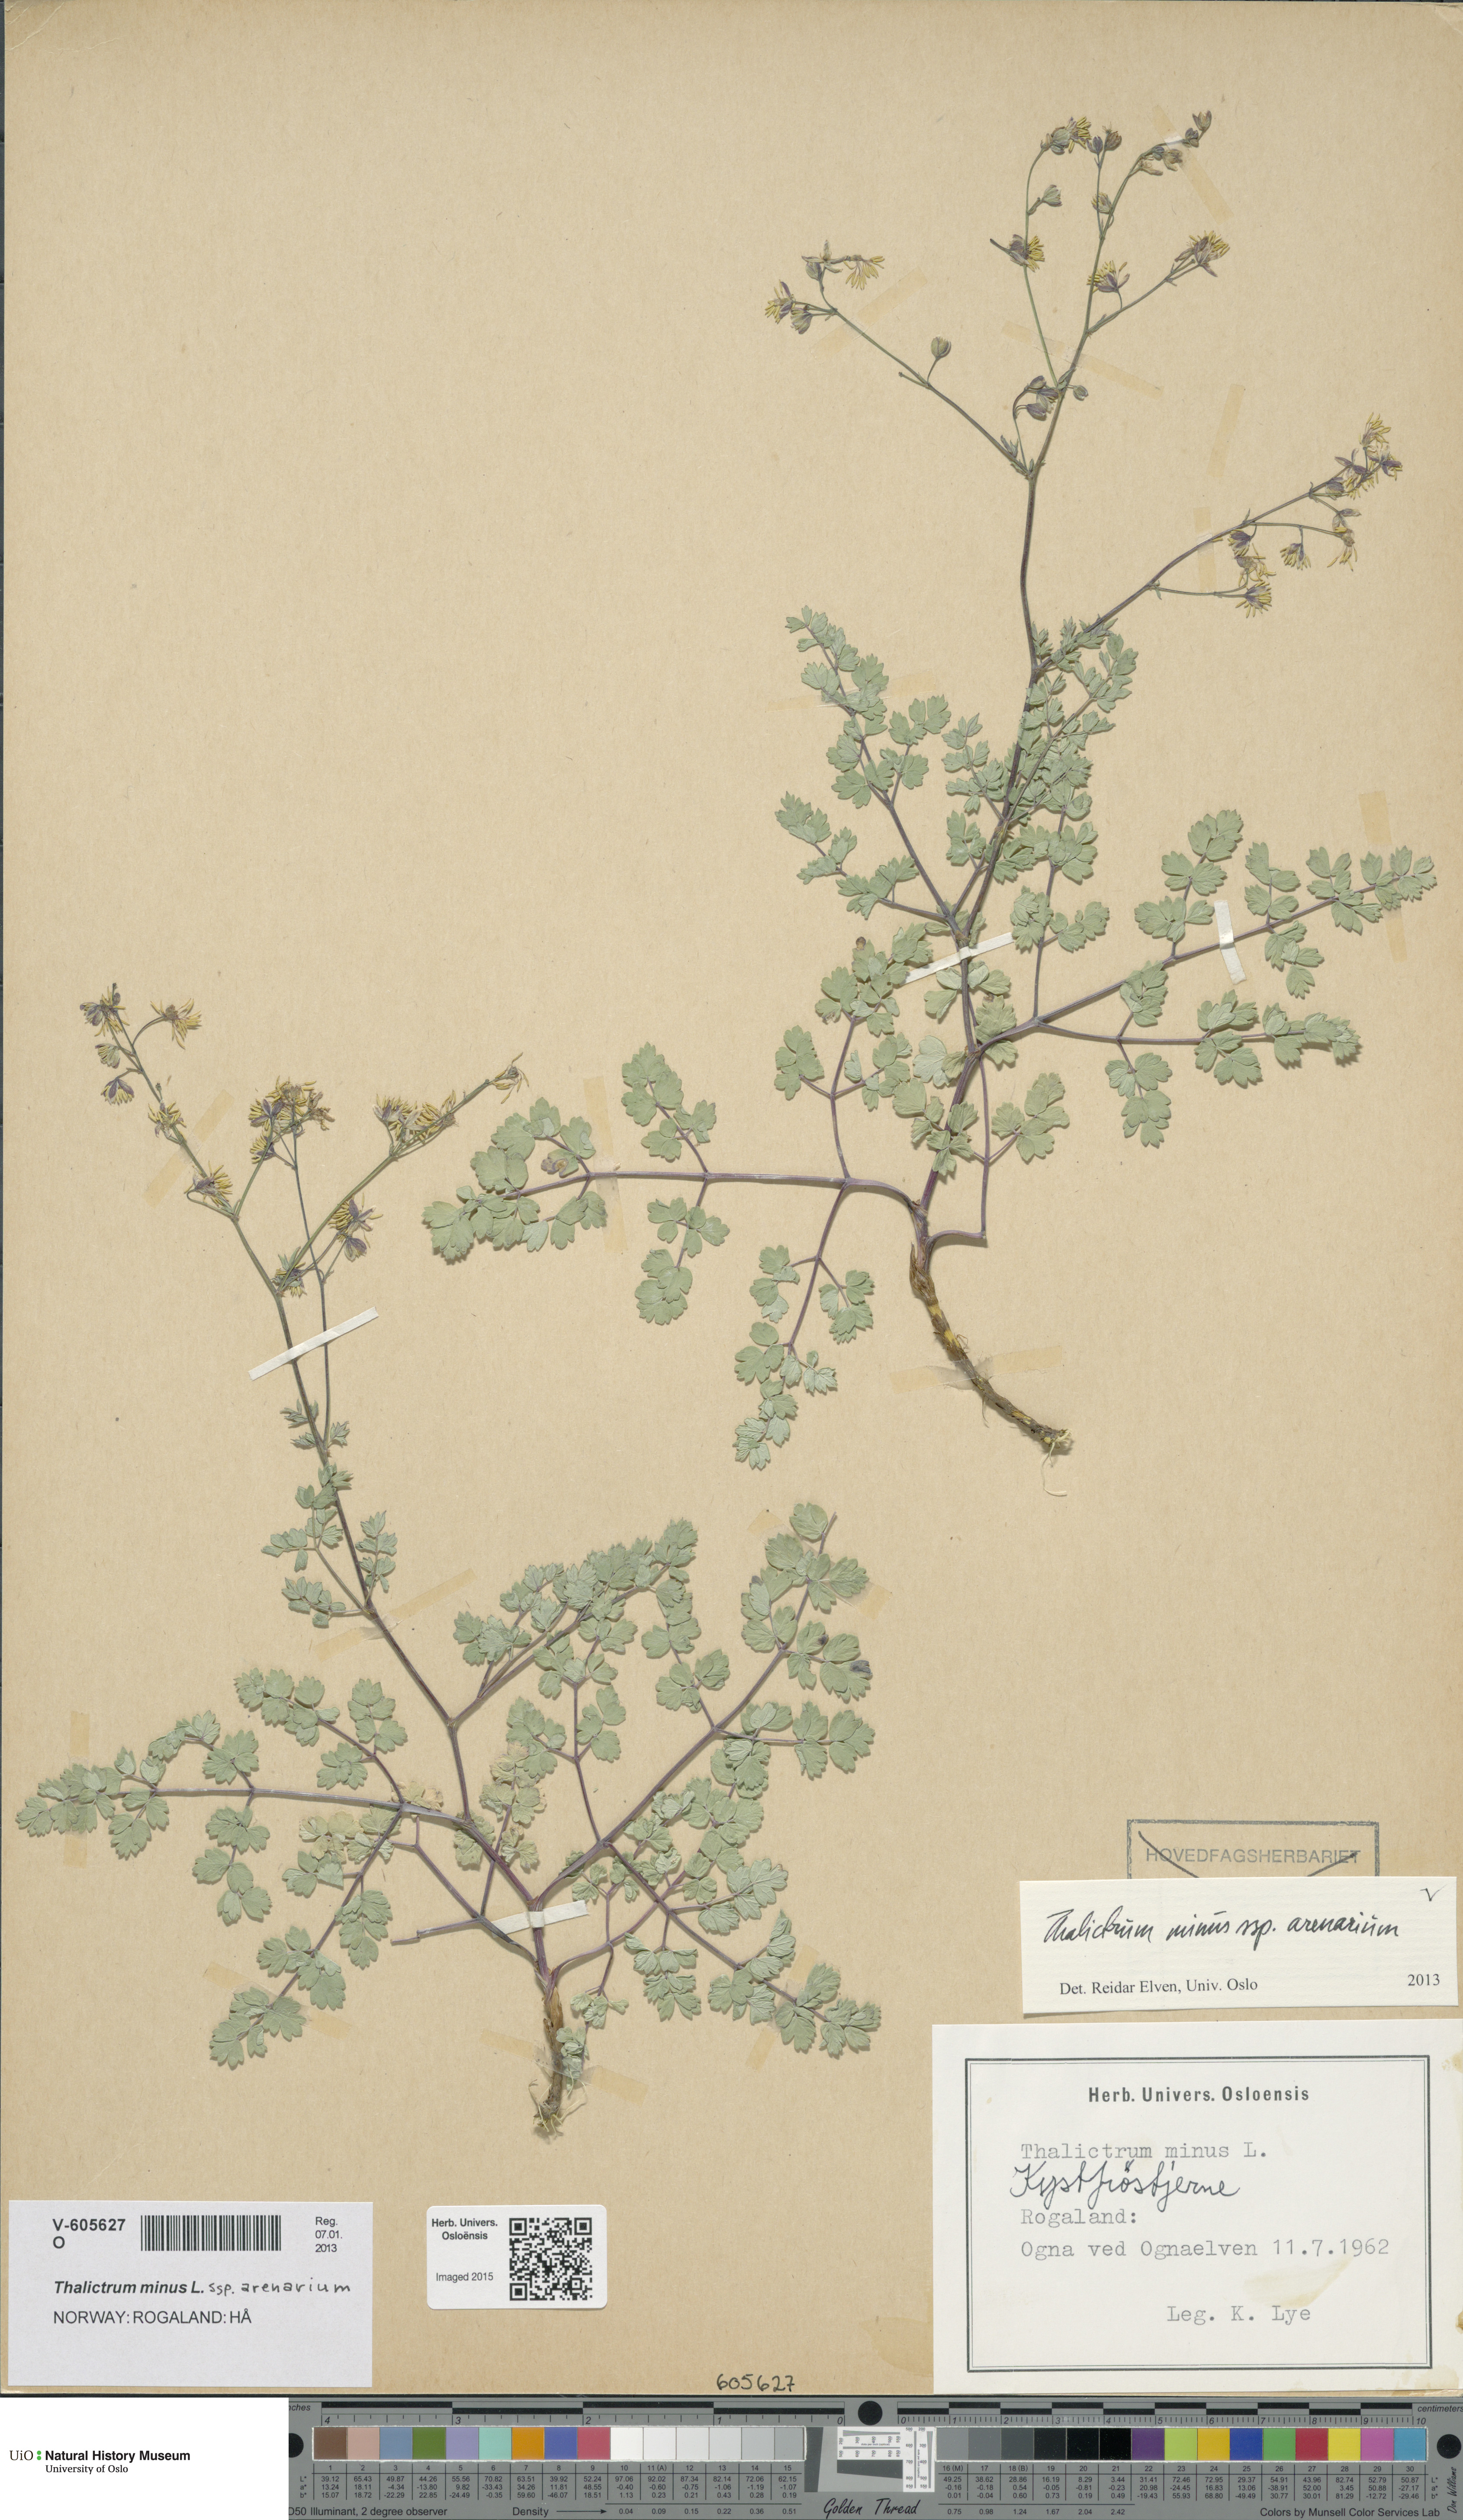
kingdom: Plantae
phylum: Tracheophyta
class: Magnoliopsida
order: Ranunculales
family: Ranunculaceae
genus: Thalictrum
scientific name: Thalictrum minus
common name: Lesser meadow-rue
